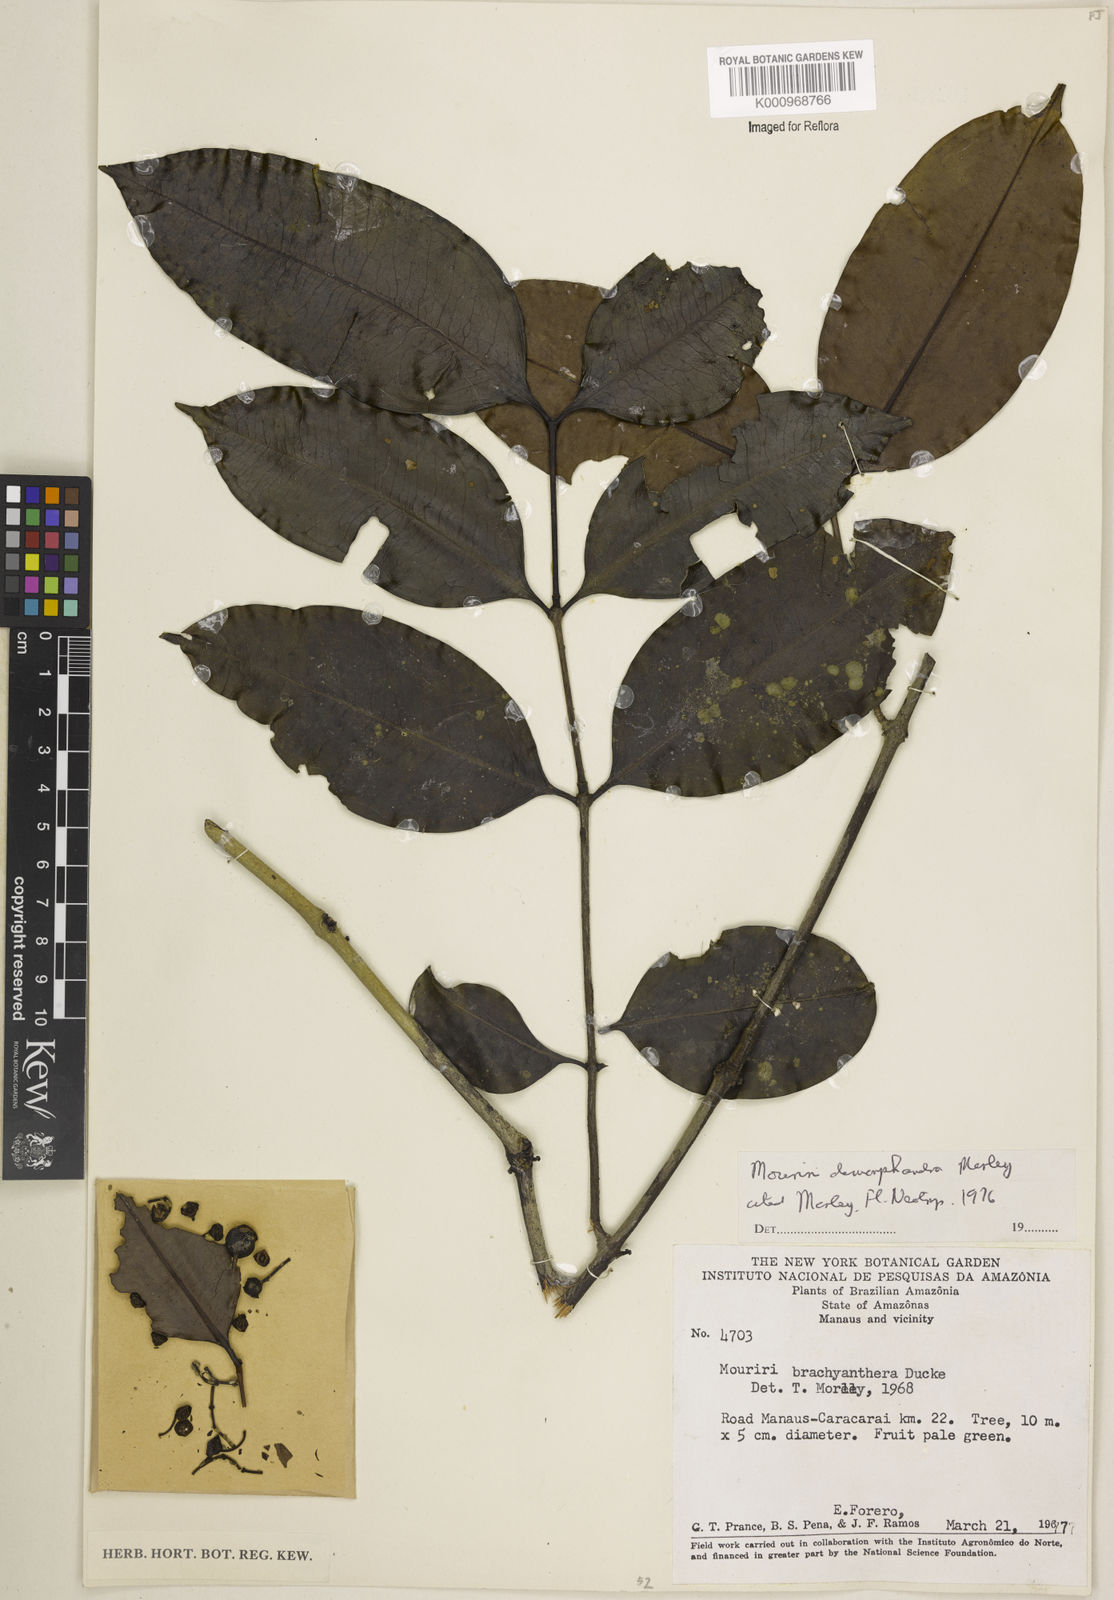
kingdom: Plantae
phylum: Tracheophyta
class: Magnoliopsida
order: Myrtales
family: Melastomataceae
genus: Mouriri
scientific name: Mouriri dimorphandra
